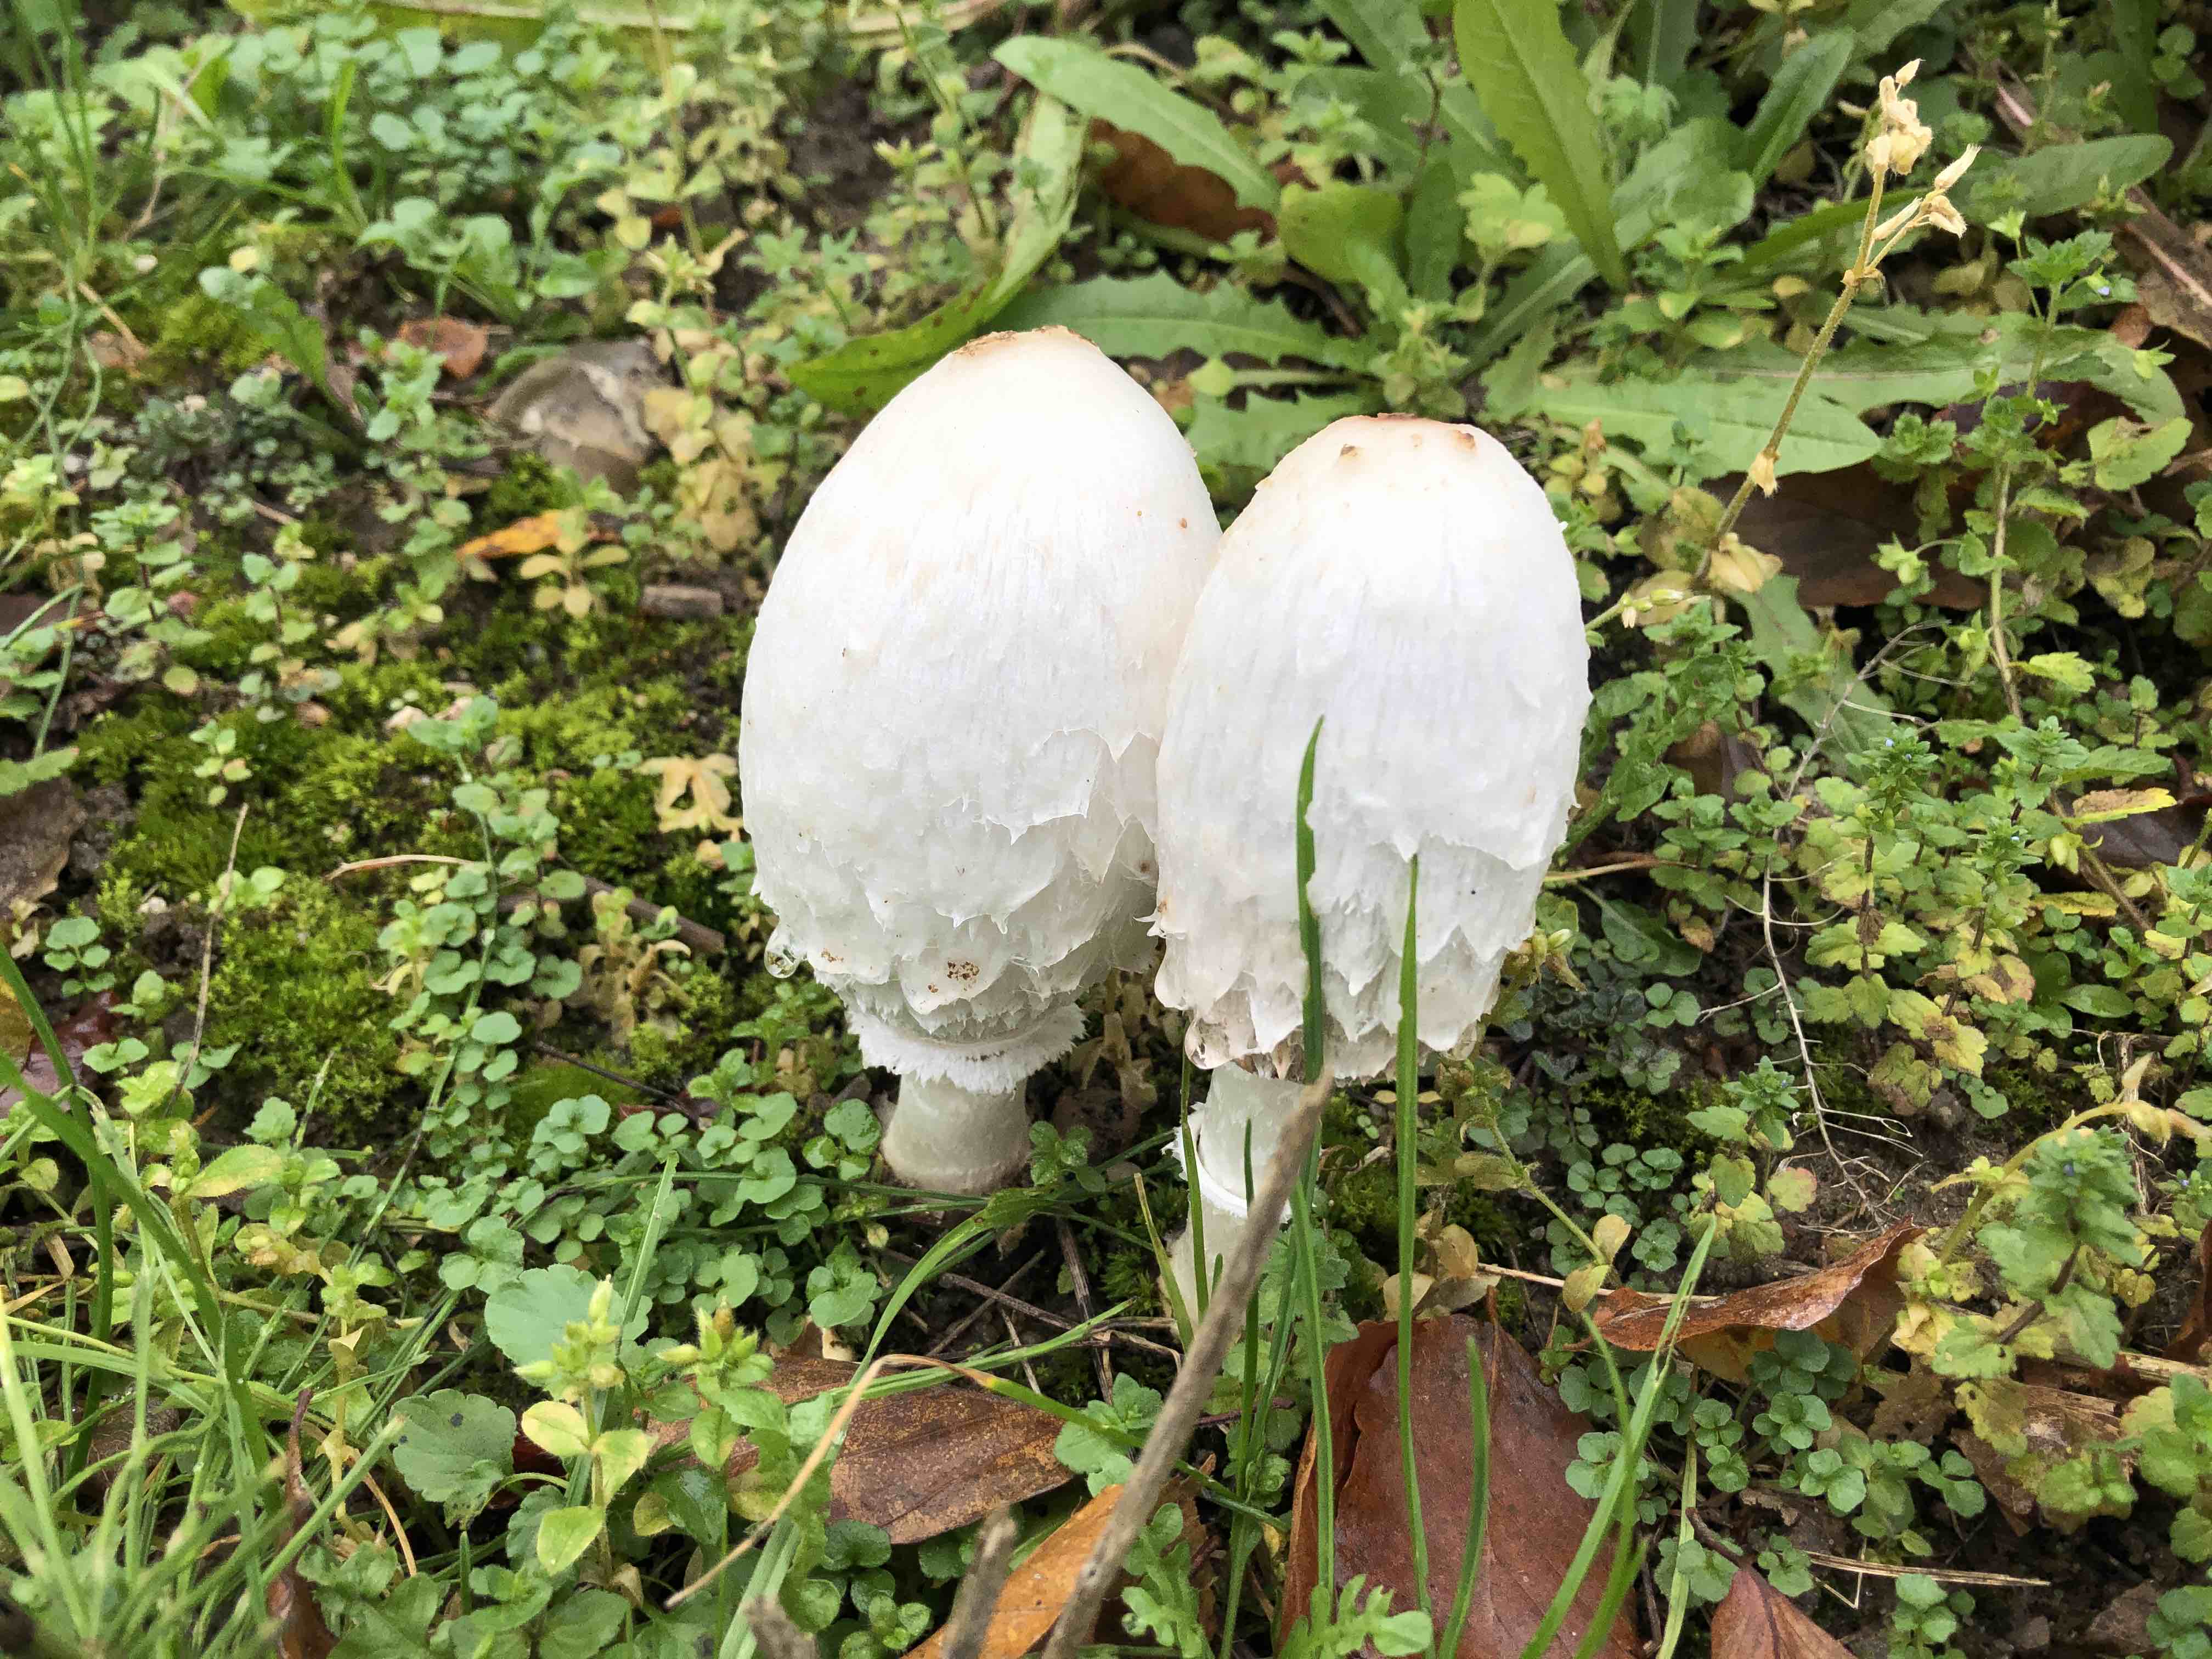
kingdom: Fungi
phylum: Basidiomycota
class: Agaricomycetes
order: Agaricales
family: Agaricaceae
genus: Coprinus
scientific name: Coprinus comatus
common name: stor parykhat
